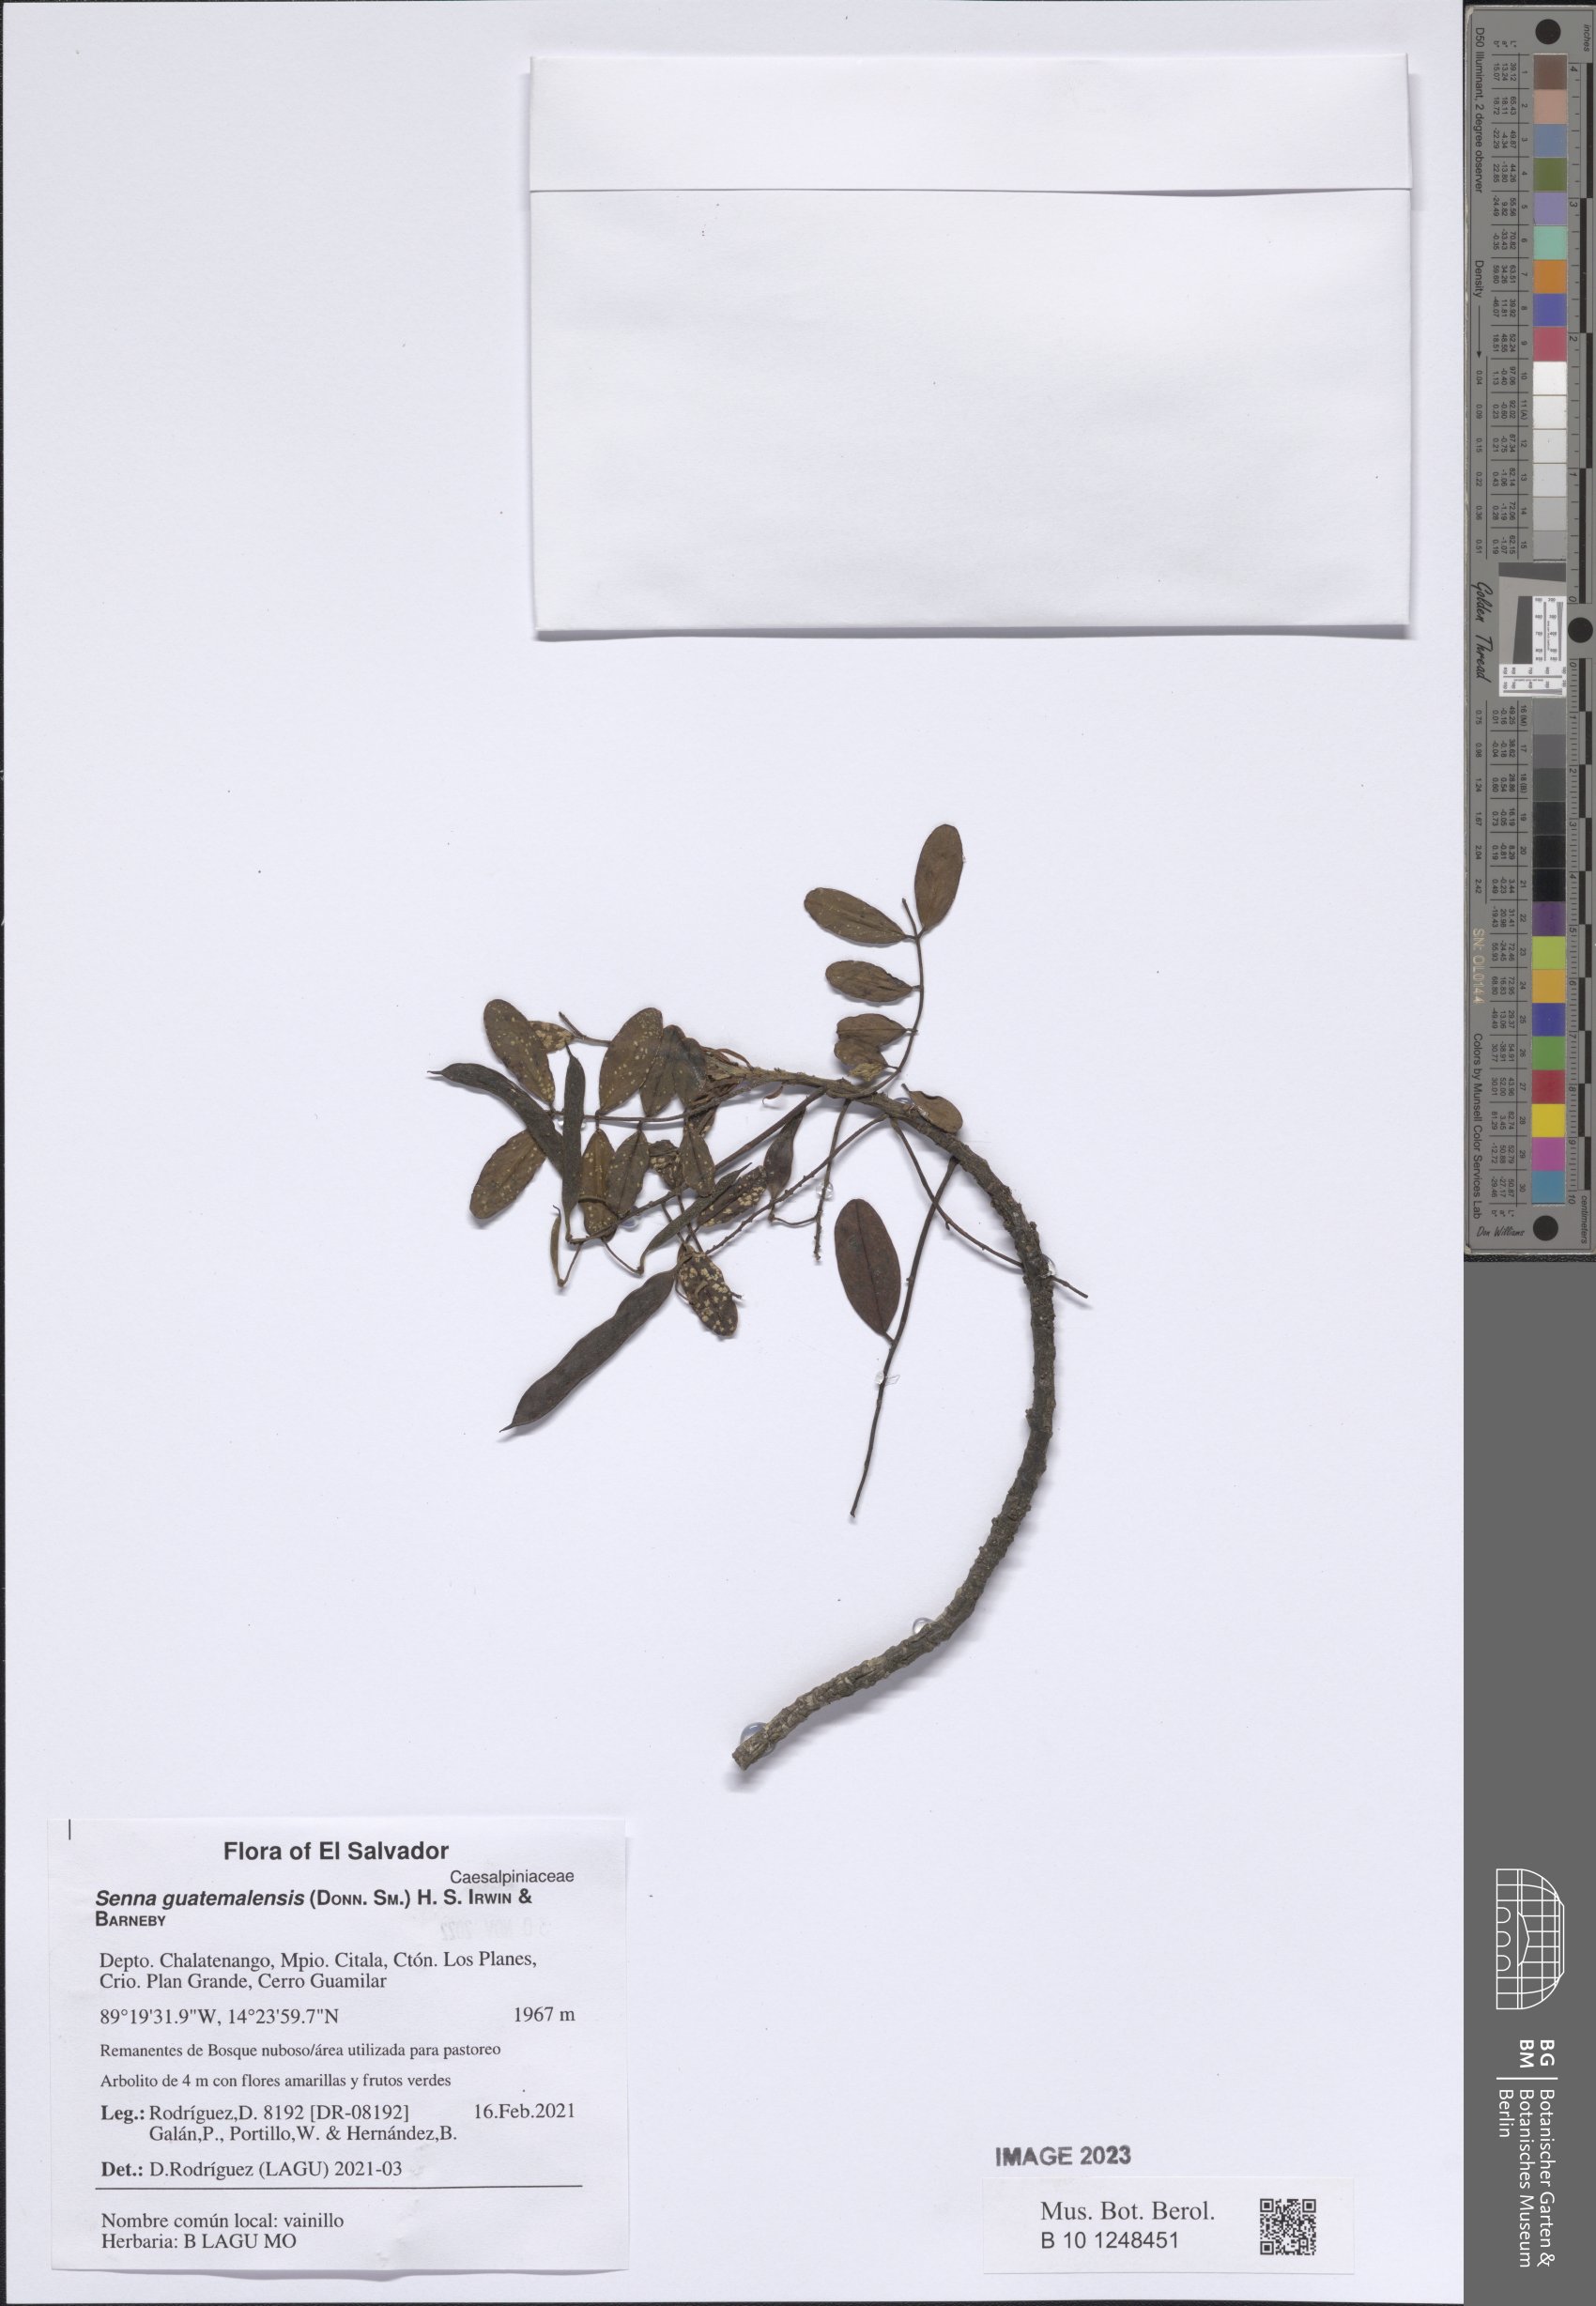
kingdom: Plantae
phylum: Tracheophyta
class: Magnoliopsida
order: Fabales
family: Fabaceae
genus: Senna
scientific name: Senna guatemalensis
